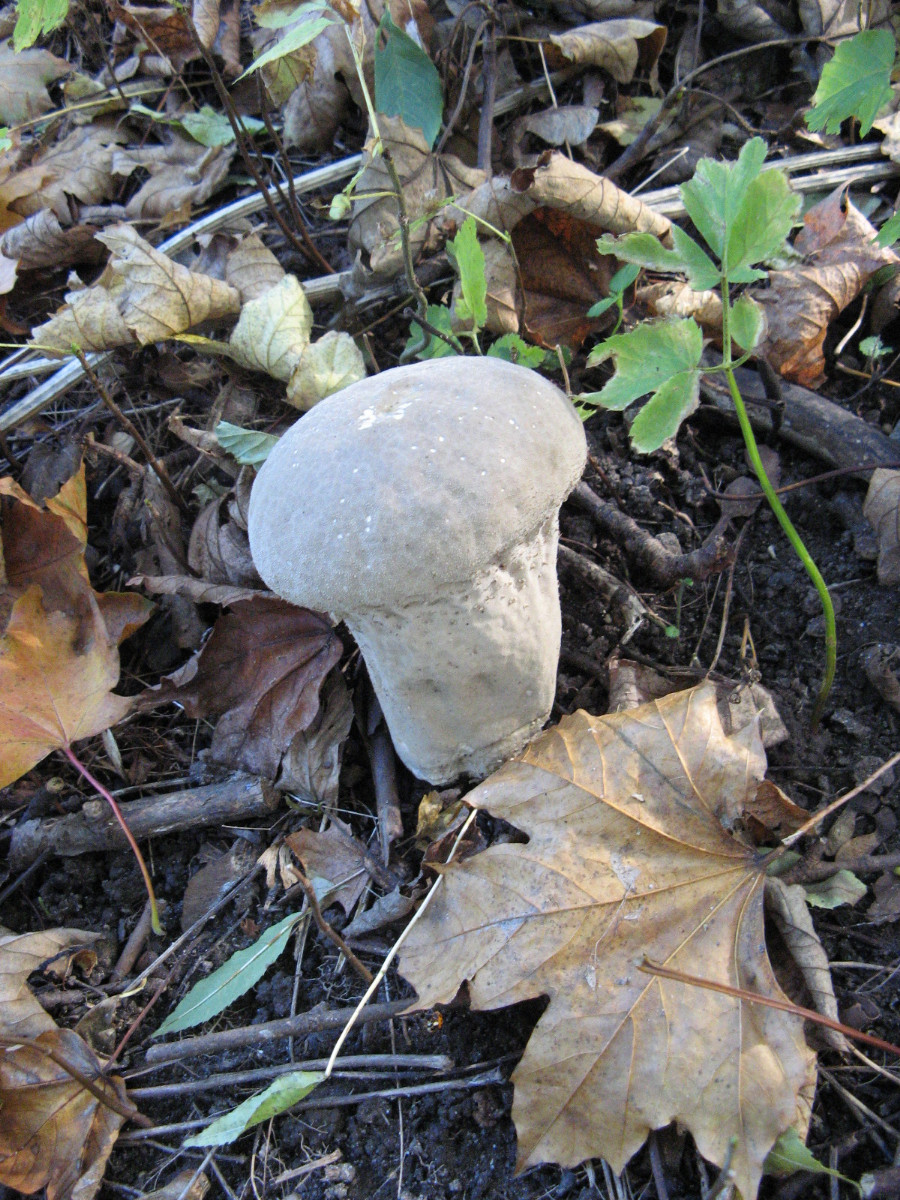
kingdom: Fungi
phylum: Basidiomycota
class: Agaricomycetes
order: Agaricales
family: Lycoperdaceae
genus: Lycoperdon
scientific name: Lycoperdon excipuliforme
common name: højstokket støvbold
